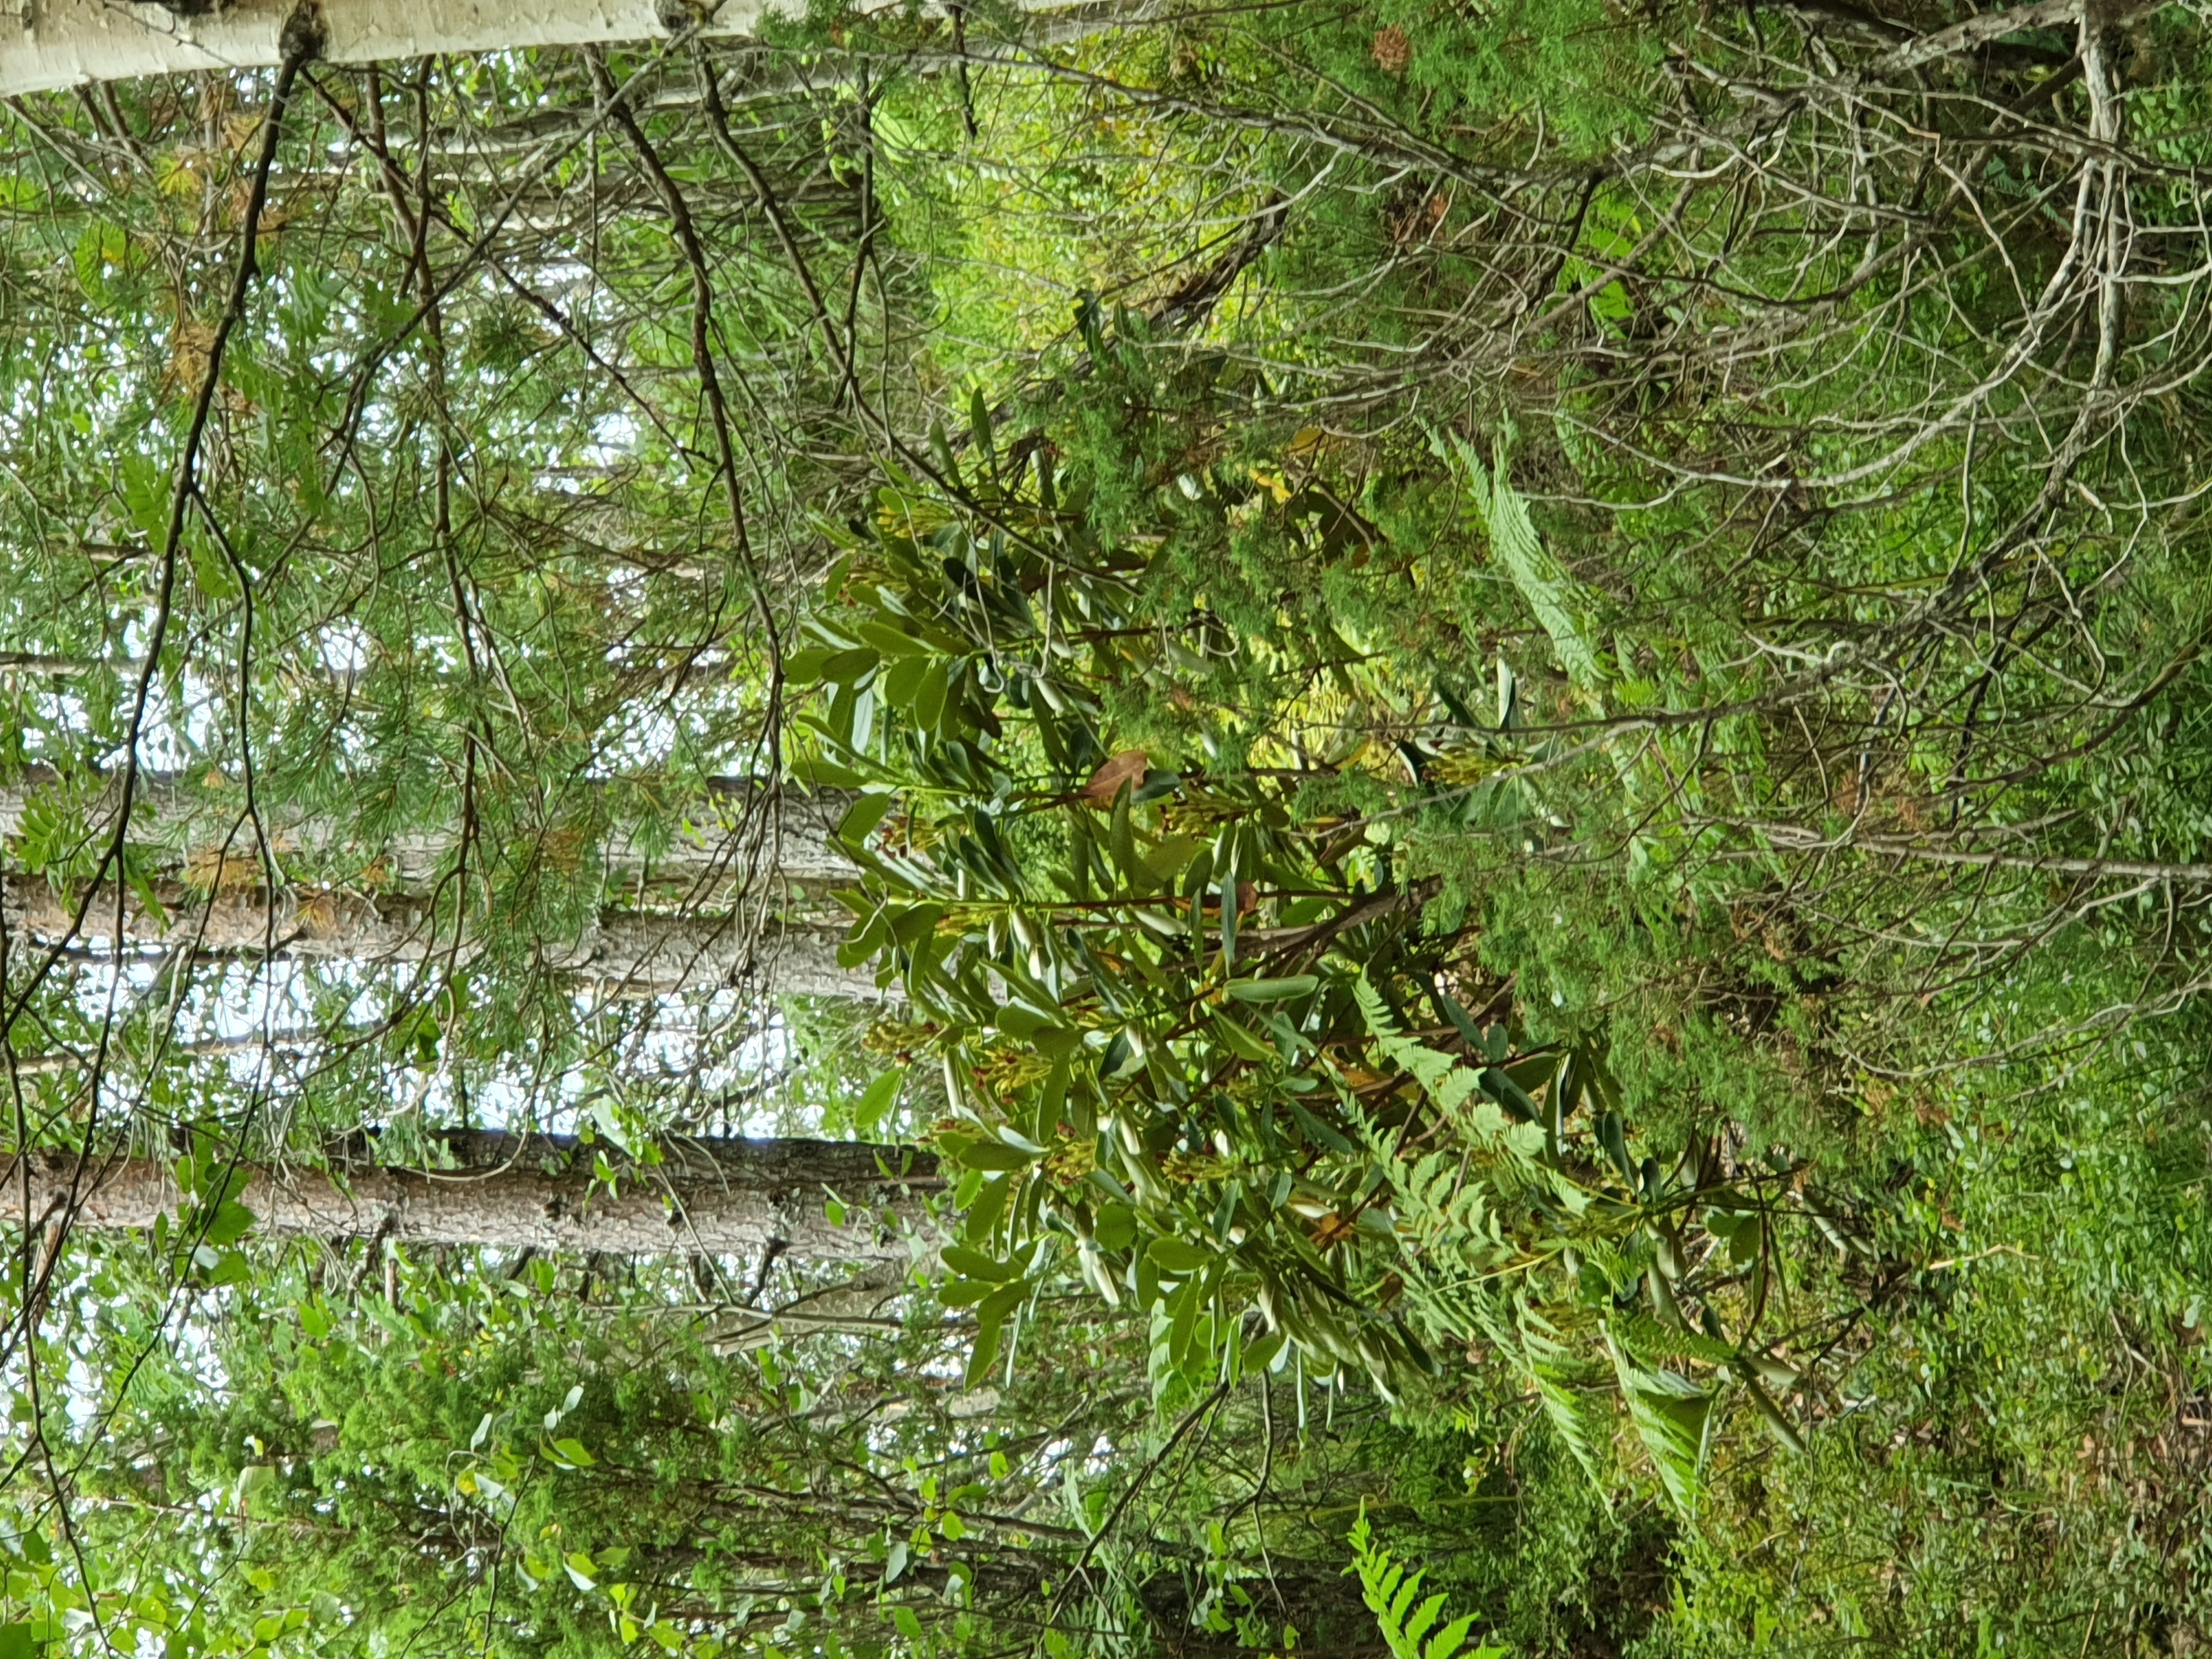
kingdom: Plantae
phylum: Tracheophyta
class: Magnoliopsida
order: Ericales
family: Ericaceae
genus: Rhododendron
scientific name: Rhododendron brachycarpum
